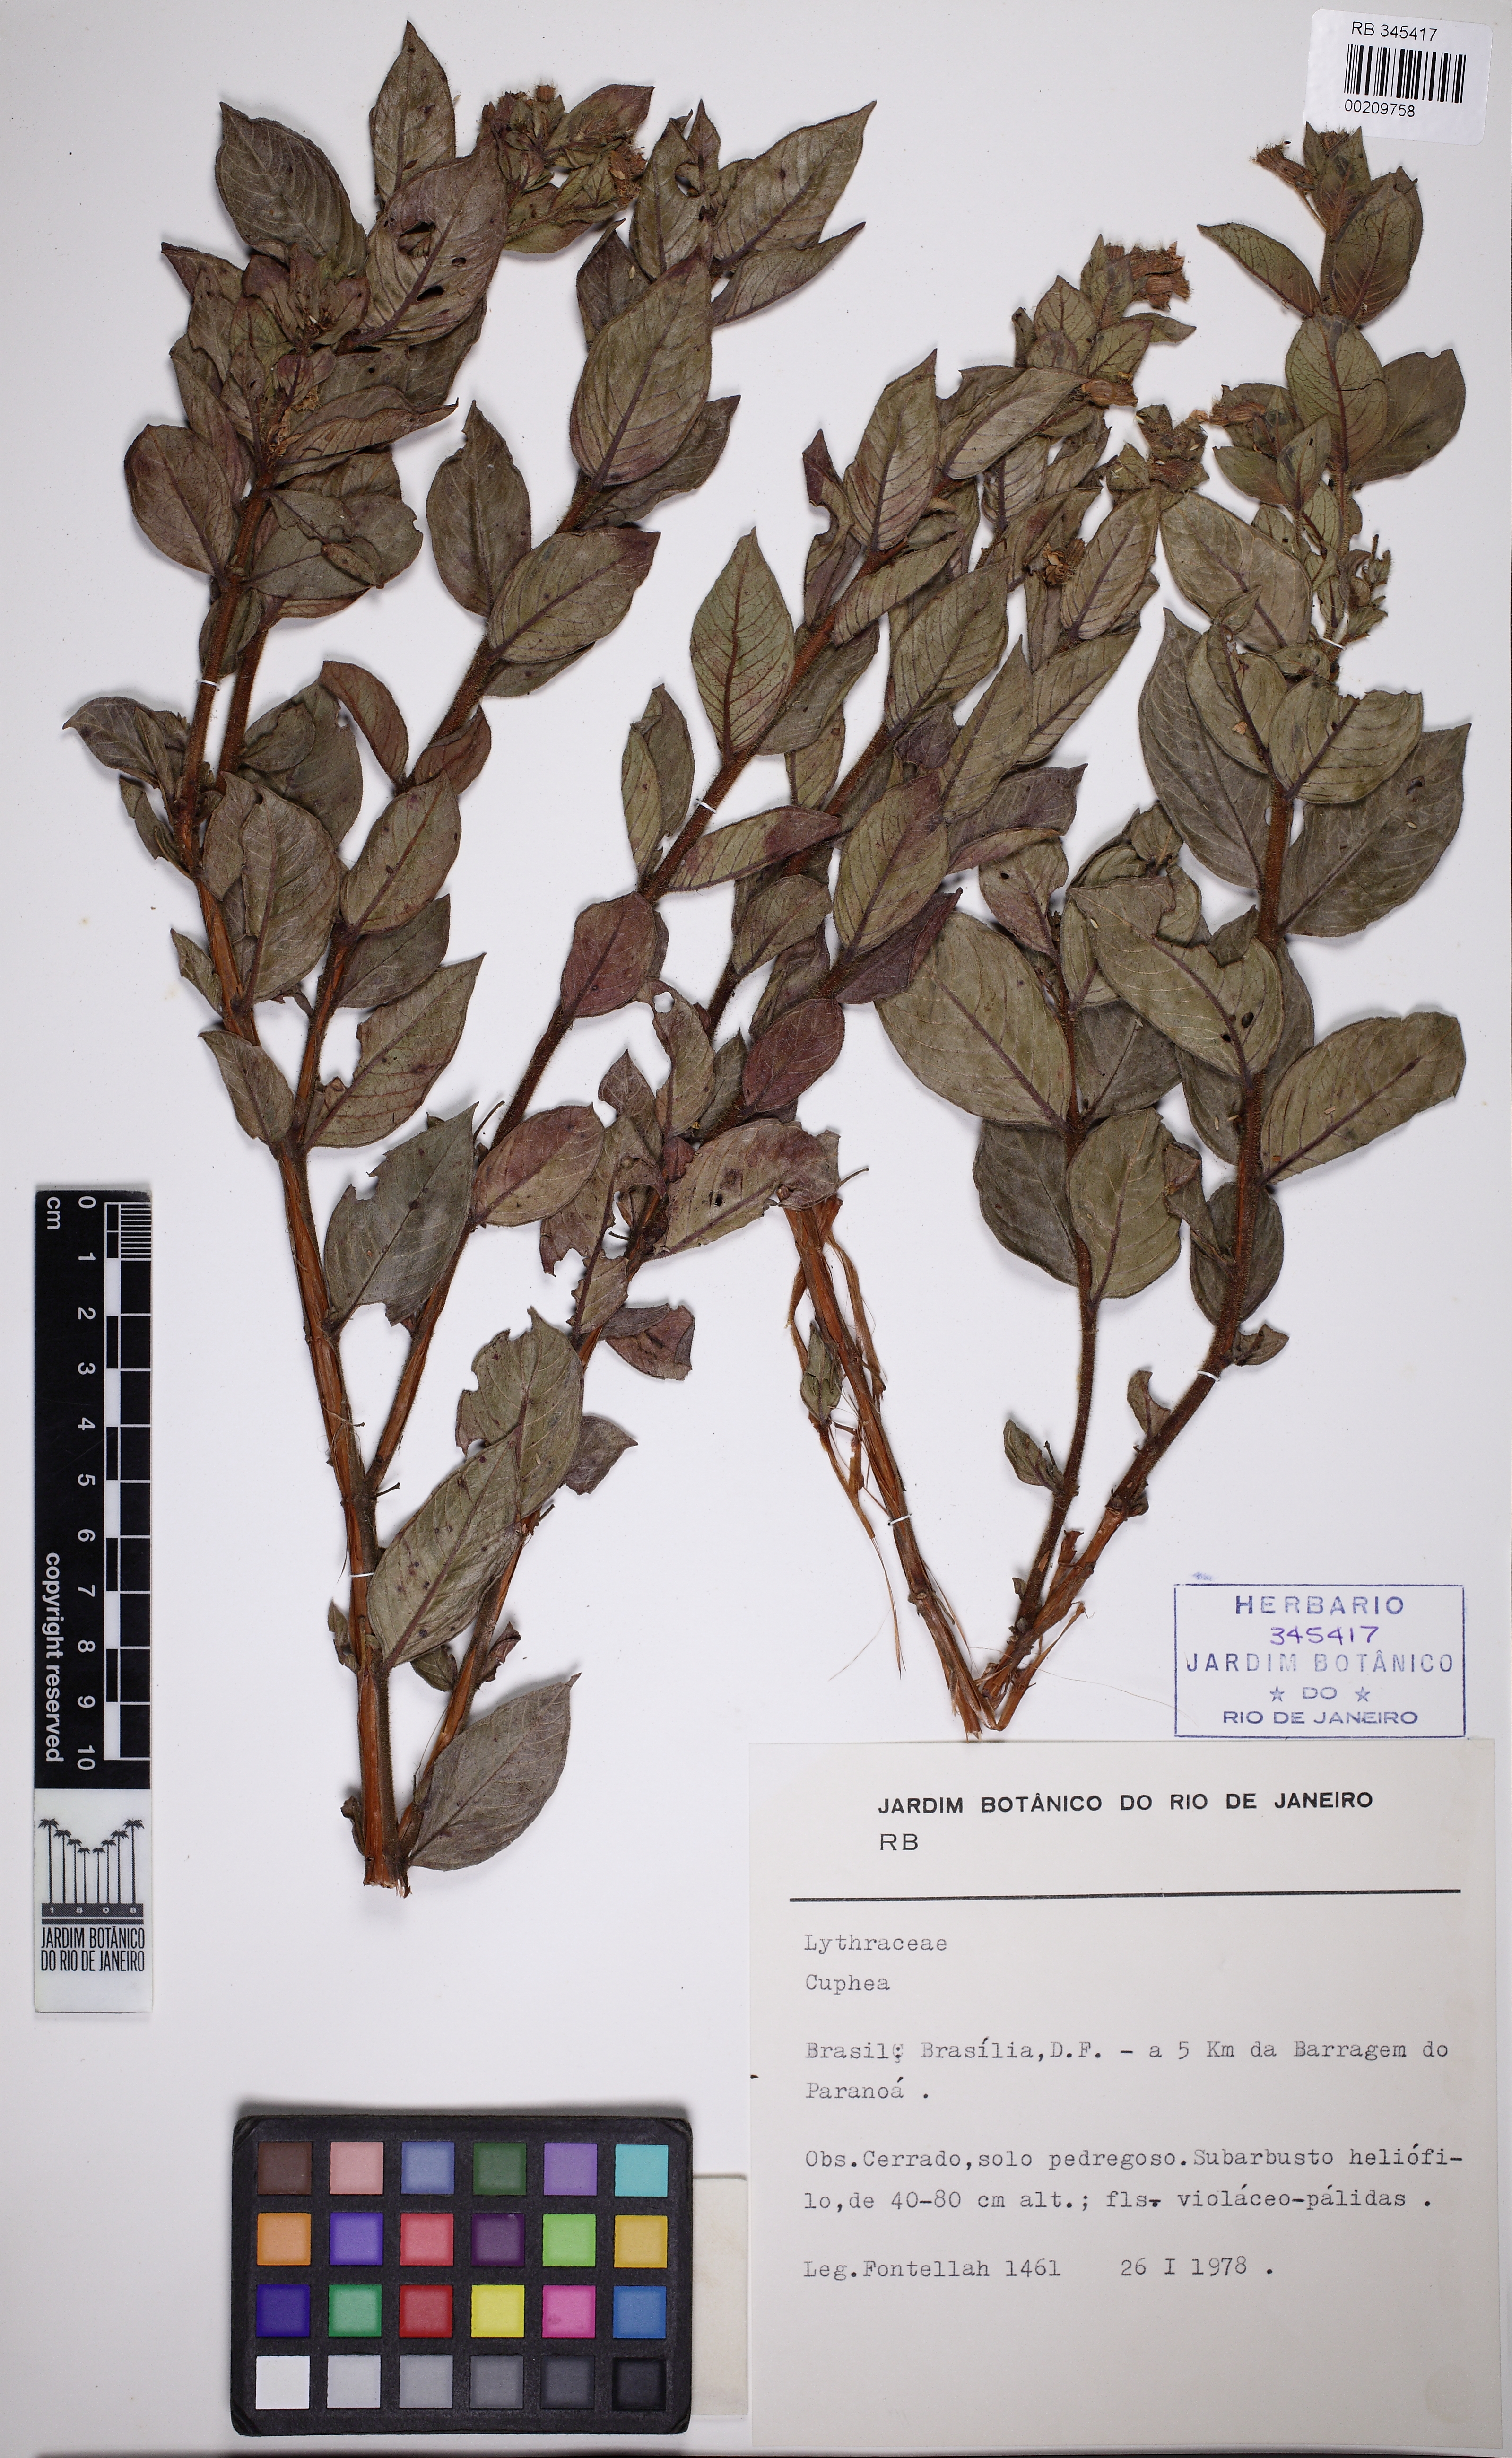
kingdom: Plantae
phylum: Tracheophyta
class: Magnoliopsida
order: Myrtales
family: Lythraceae
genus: Cuphea
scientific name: Cuphea
